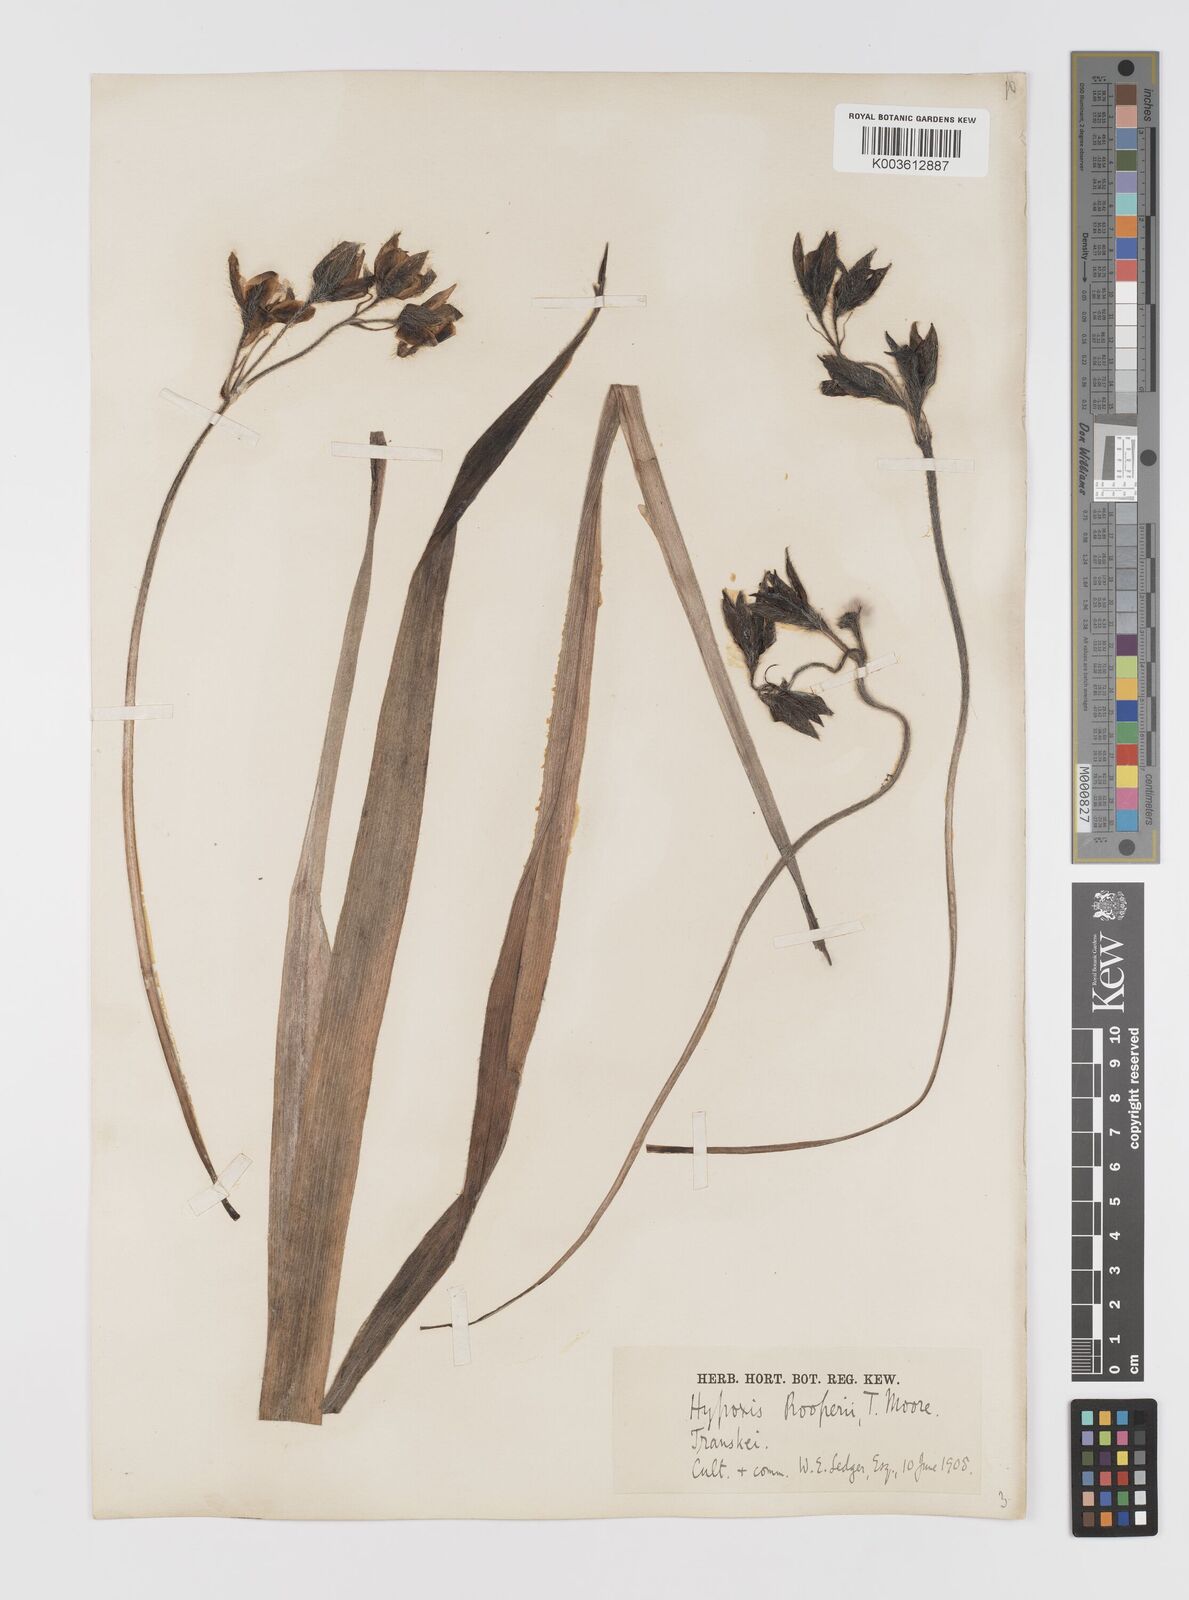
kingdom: Plantae
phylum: Tracheophyta
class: Liliopsida
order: Asparagales
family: Hypoxidaceae
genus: Hypoxis
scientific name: Hypoxis hemerocallidea
